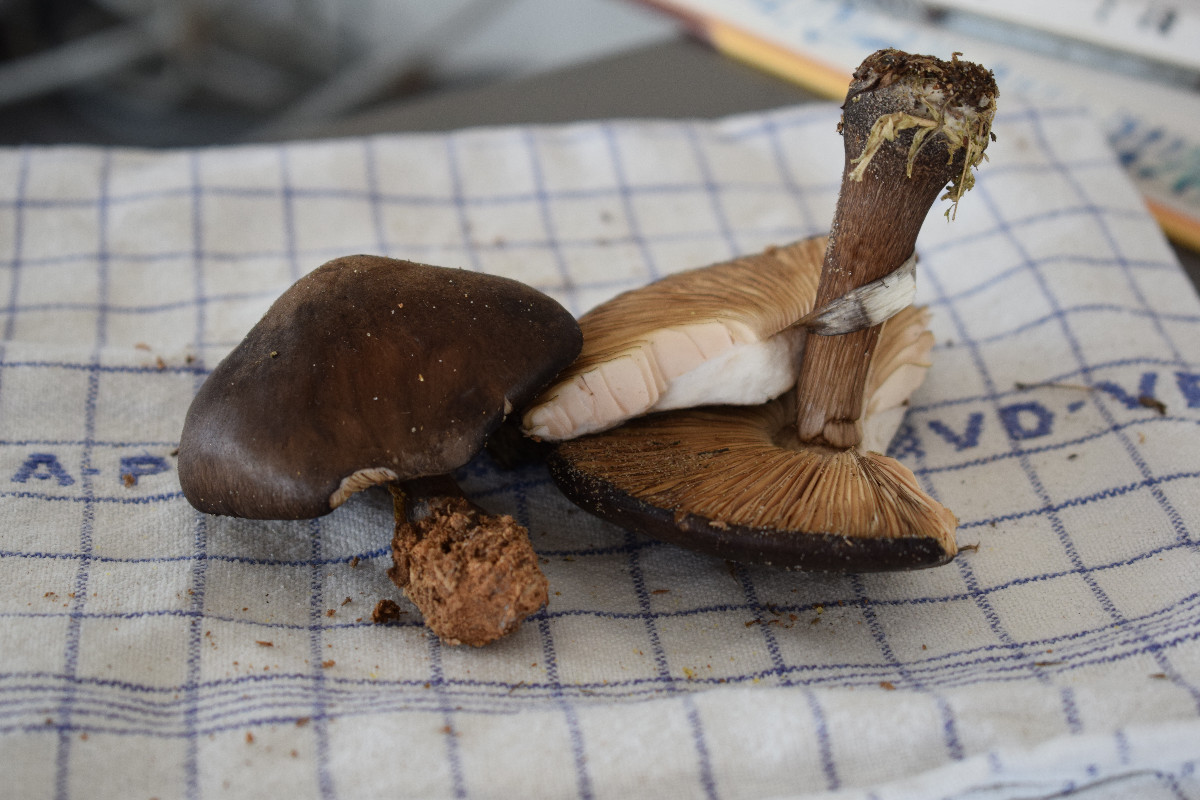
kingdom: Fungi
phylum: Basidiomycota
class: Agaricomycetes
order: Agaricales
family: Pluteaceae
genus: Pluteus
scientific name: Pluteus atromarginatus
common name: sortrandet skærmhat
